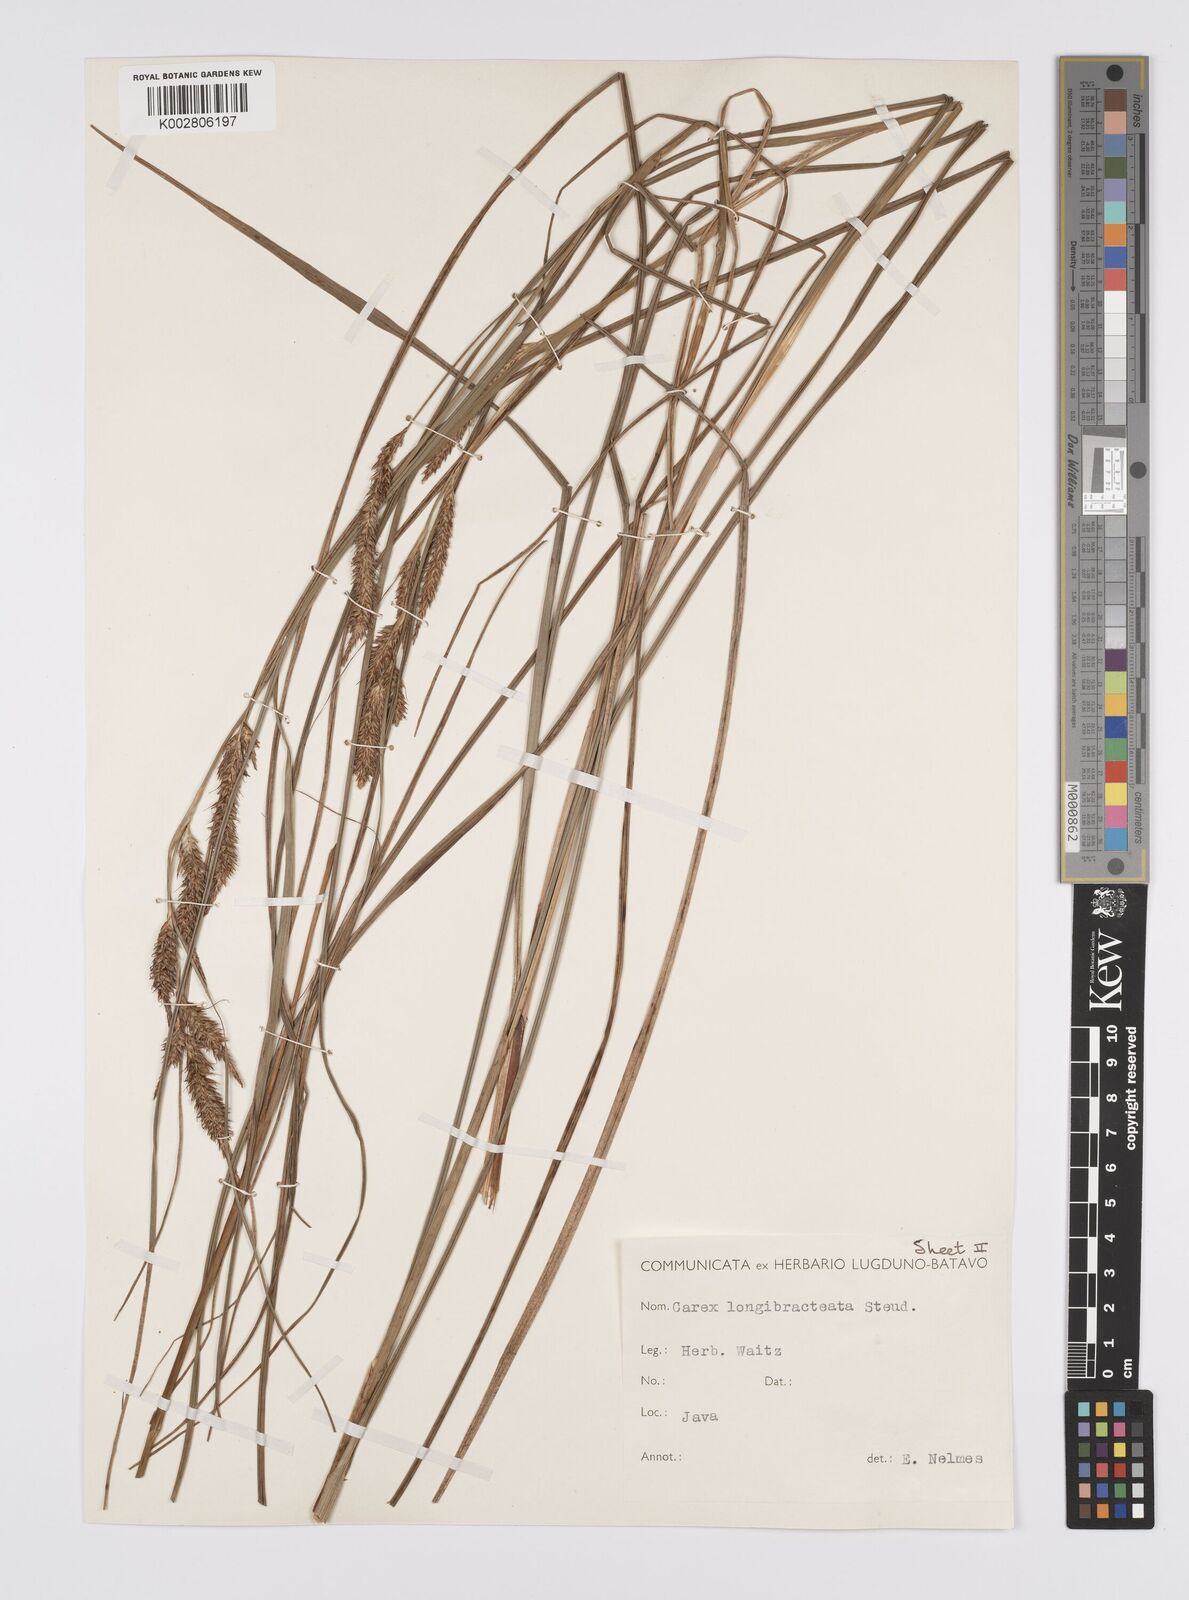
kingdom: Plantae
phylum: Tracheophyta
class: Liliopsida
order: Poales
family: Cyperaceae
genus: Carex
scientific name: Carex myosurus
